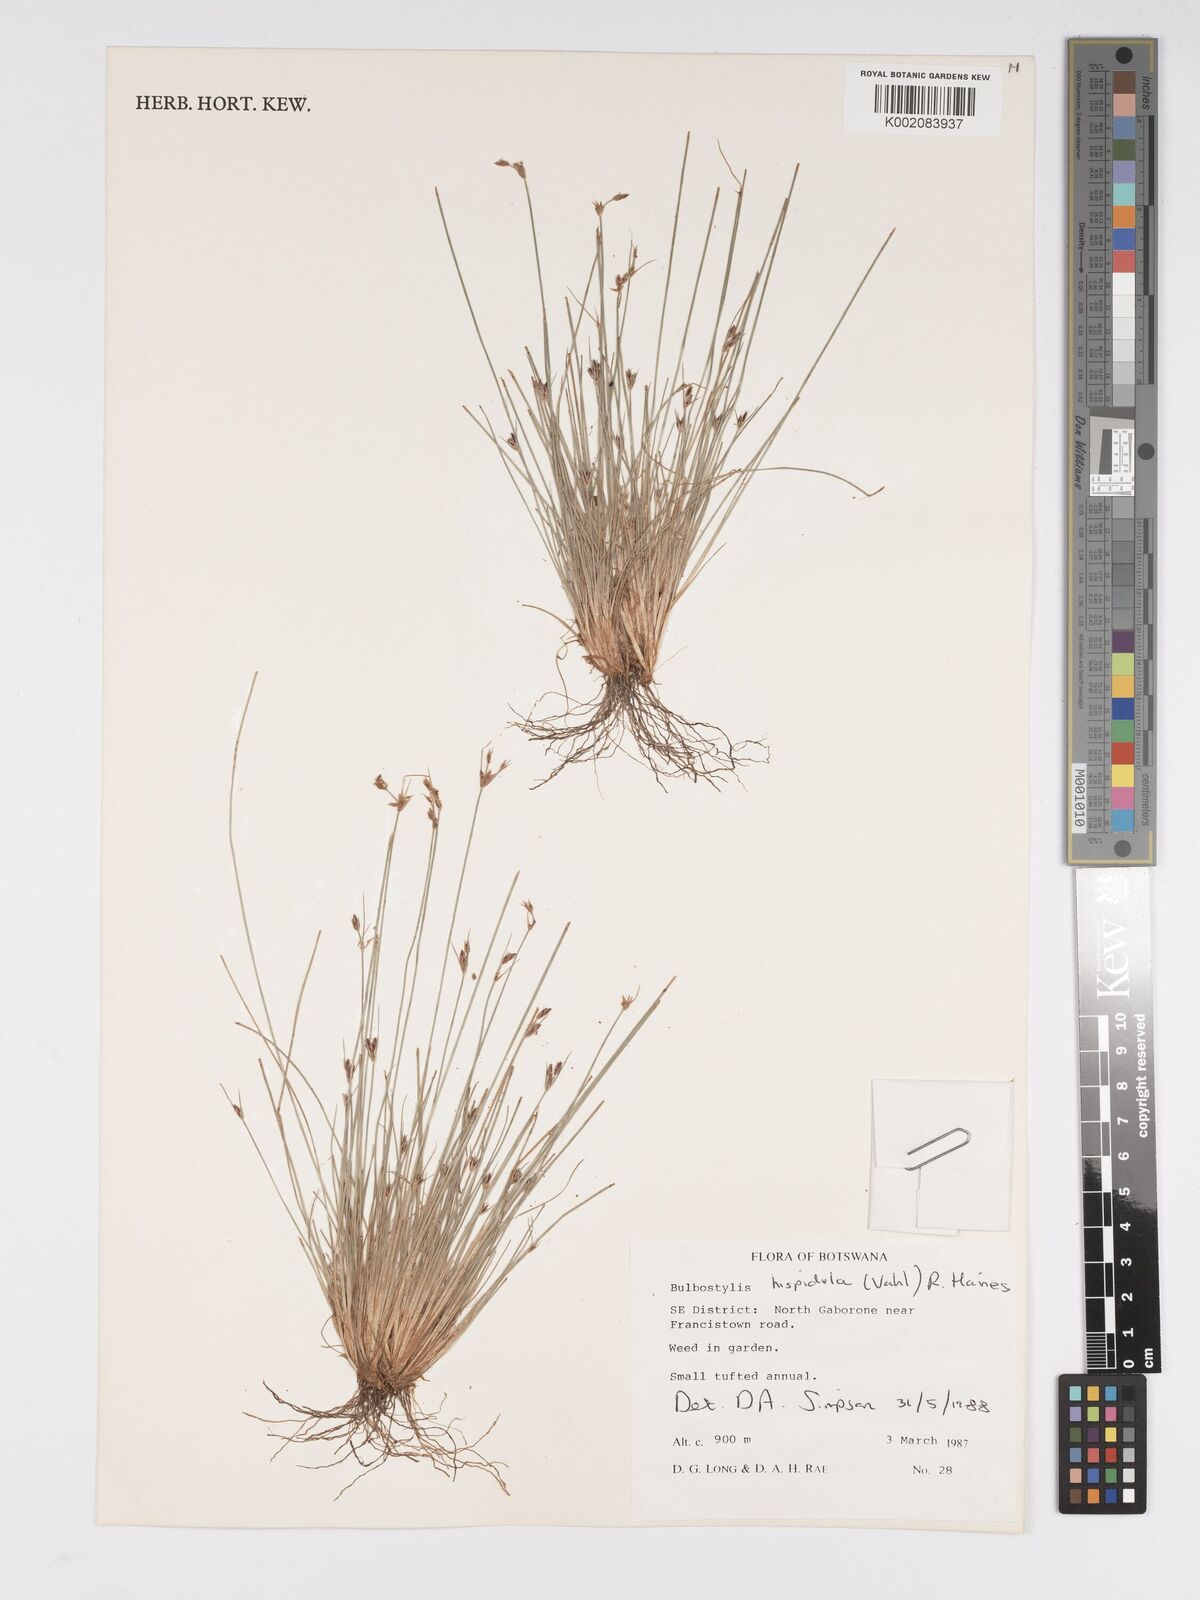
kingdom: Plantae
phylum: Tracheophyta
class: Liliopsida
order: Poales
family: Cyperaceae
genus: Bulbostylis
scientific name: Bulbostylis hispidula
